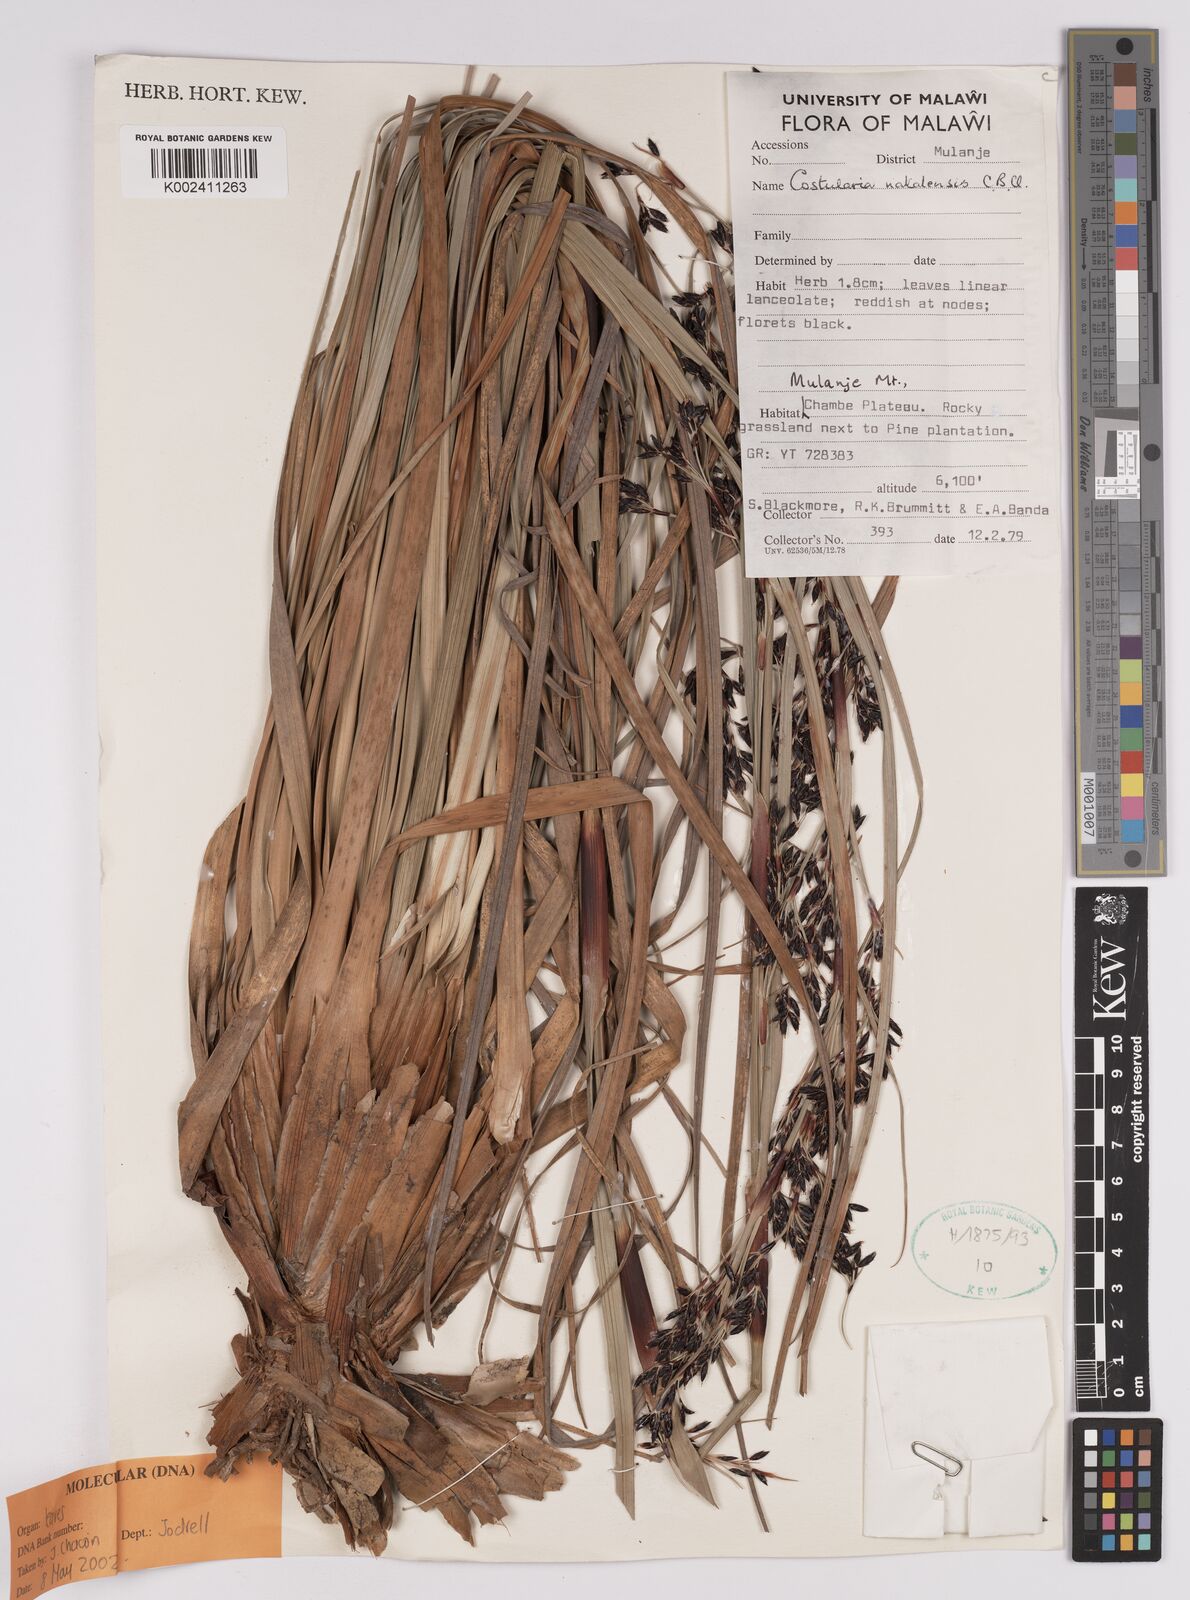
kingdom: Plantae
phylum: Tracheophyta
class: Liliopsida
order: Poales
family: Cyperaceae
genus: Costularia
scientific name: Costularia natalensis
